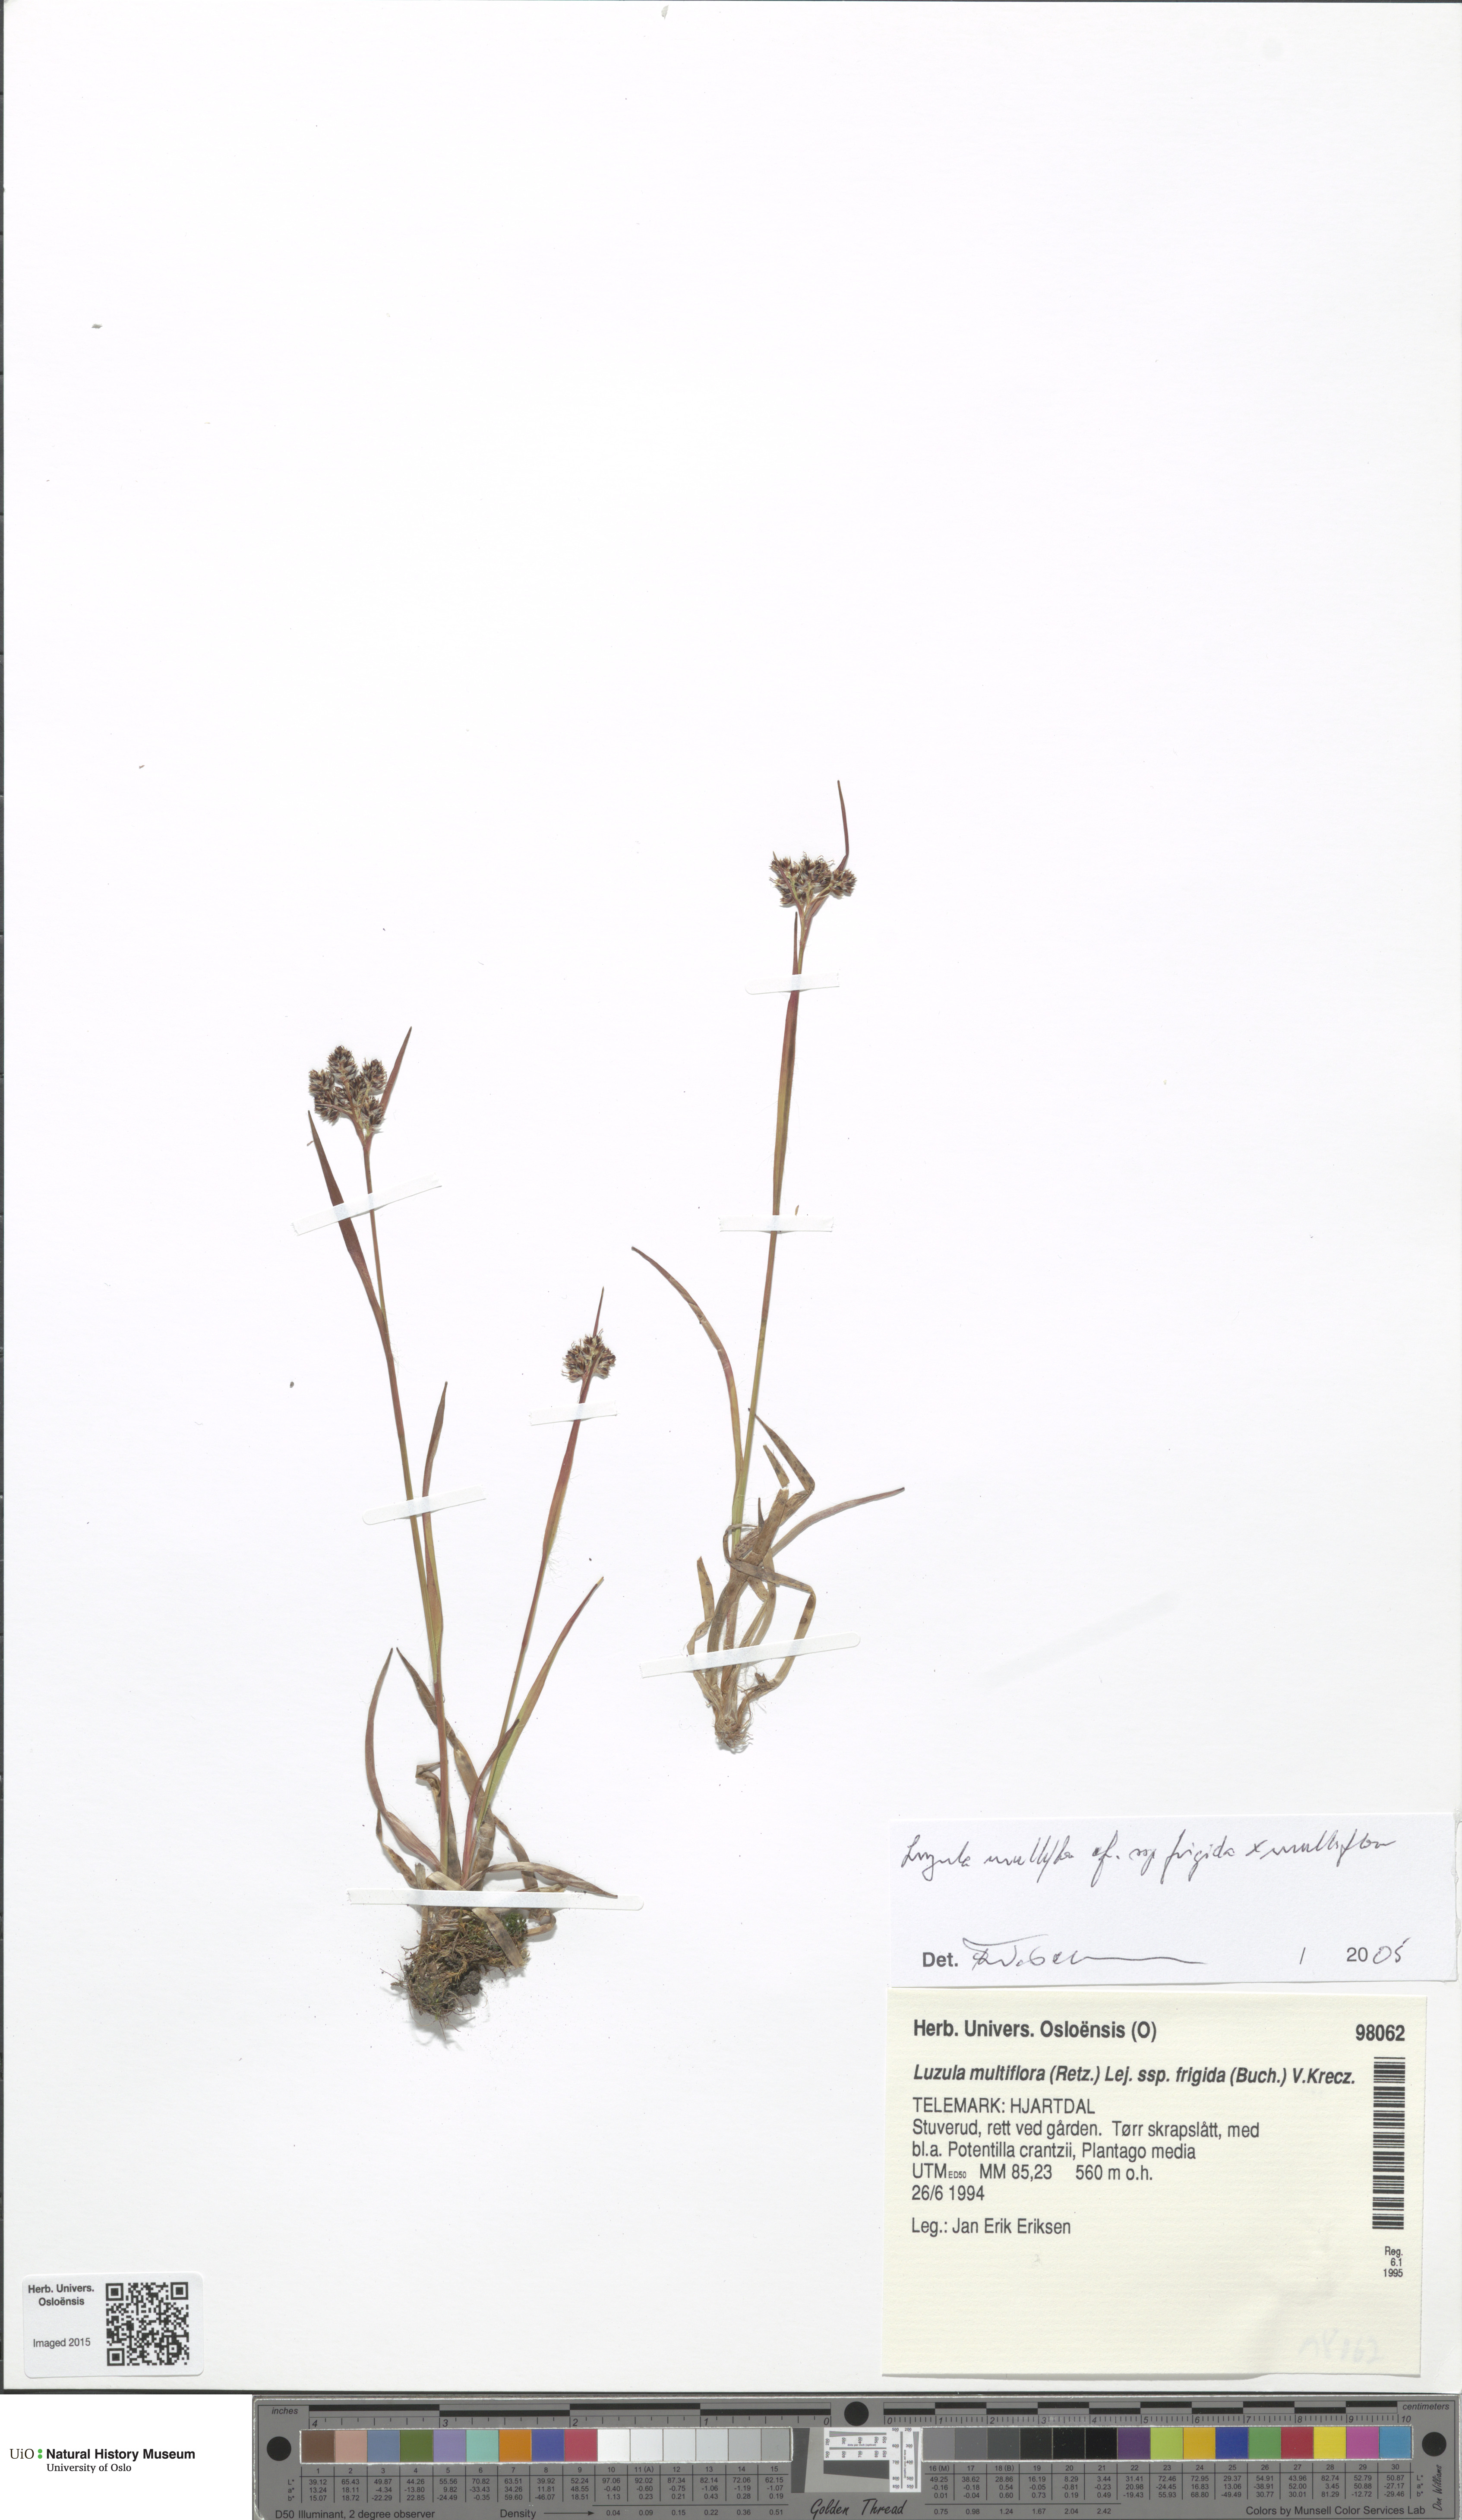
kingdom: Plantae
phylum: Tracheophyta
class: Liliopsida
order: Poales
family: Juncaceae
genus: Luzula
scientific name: Luzula
